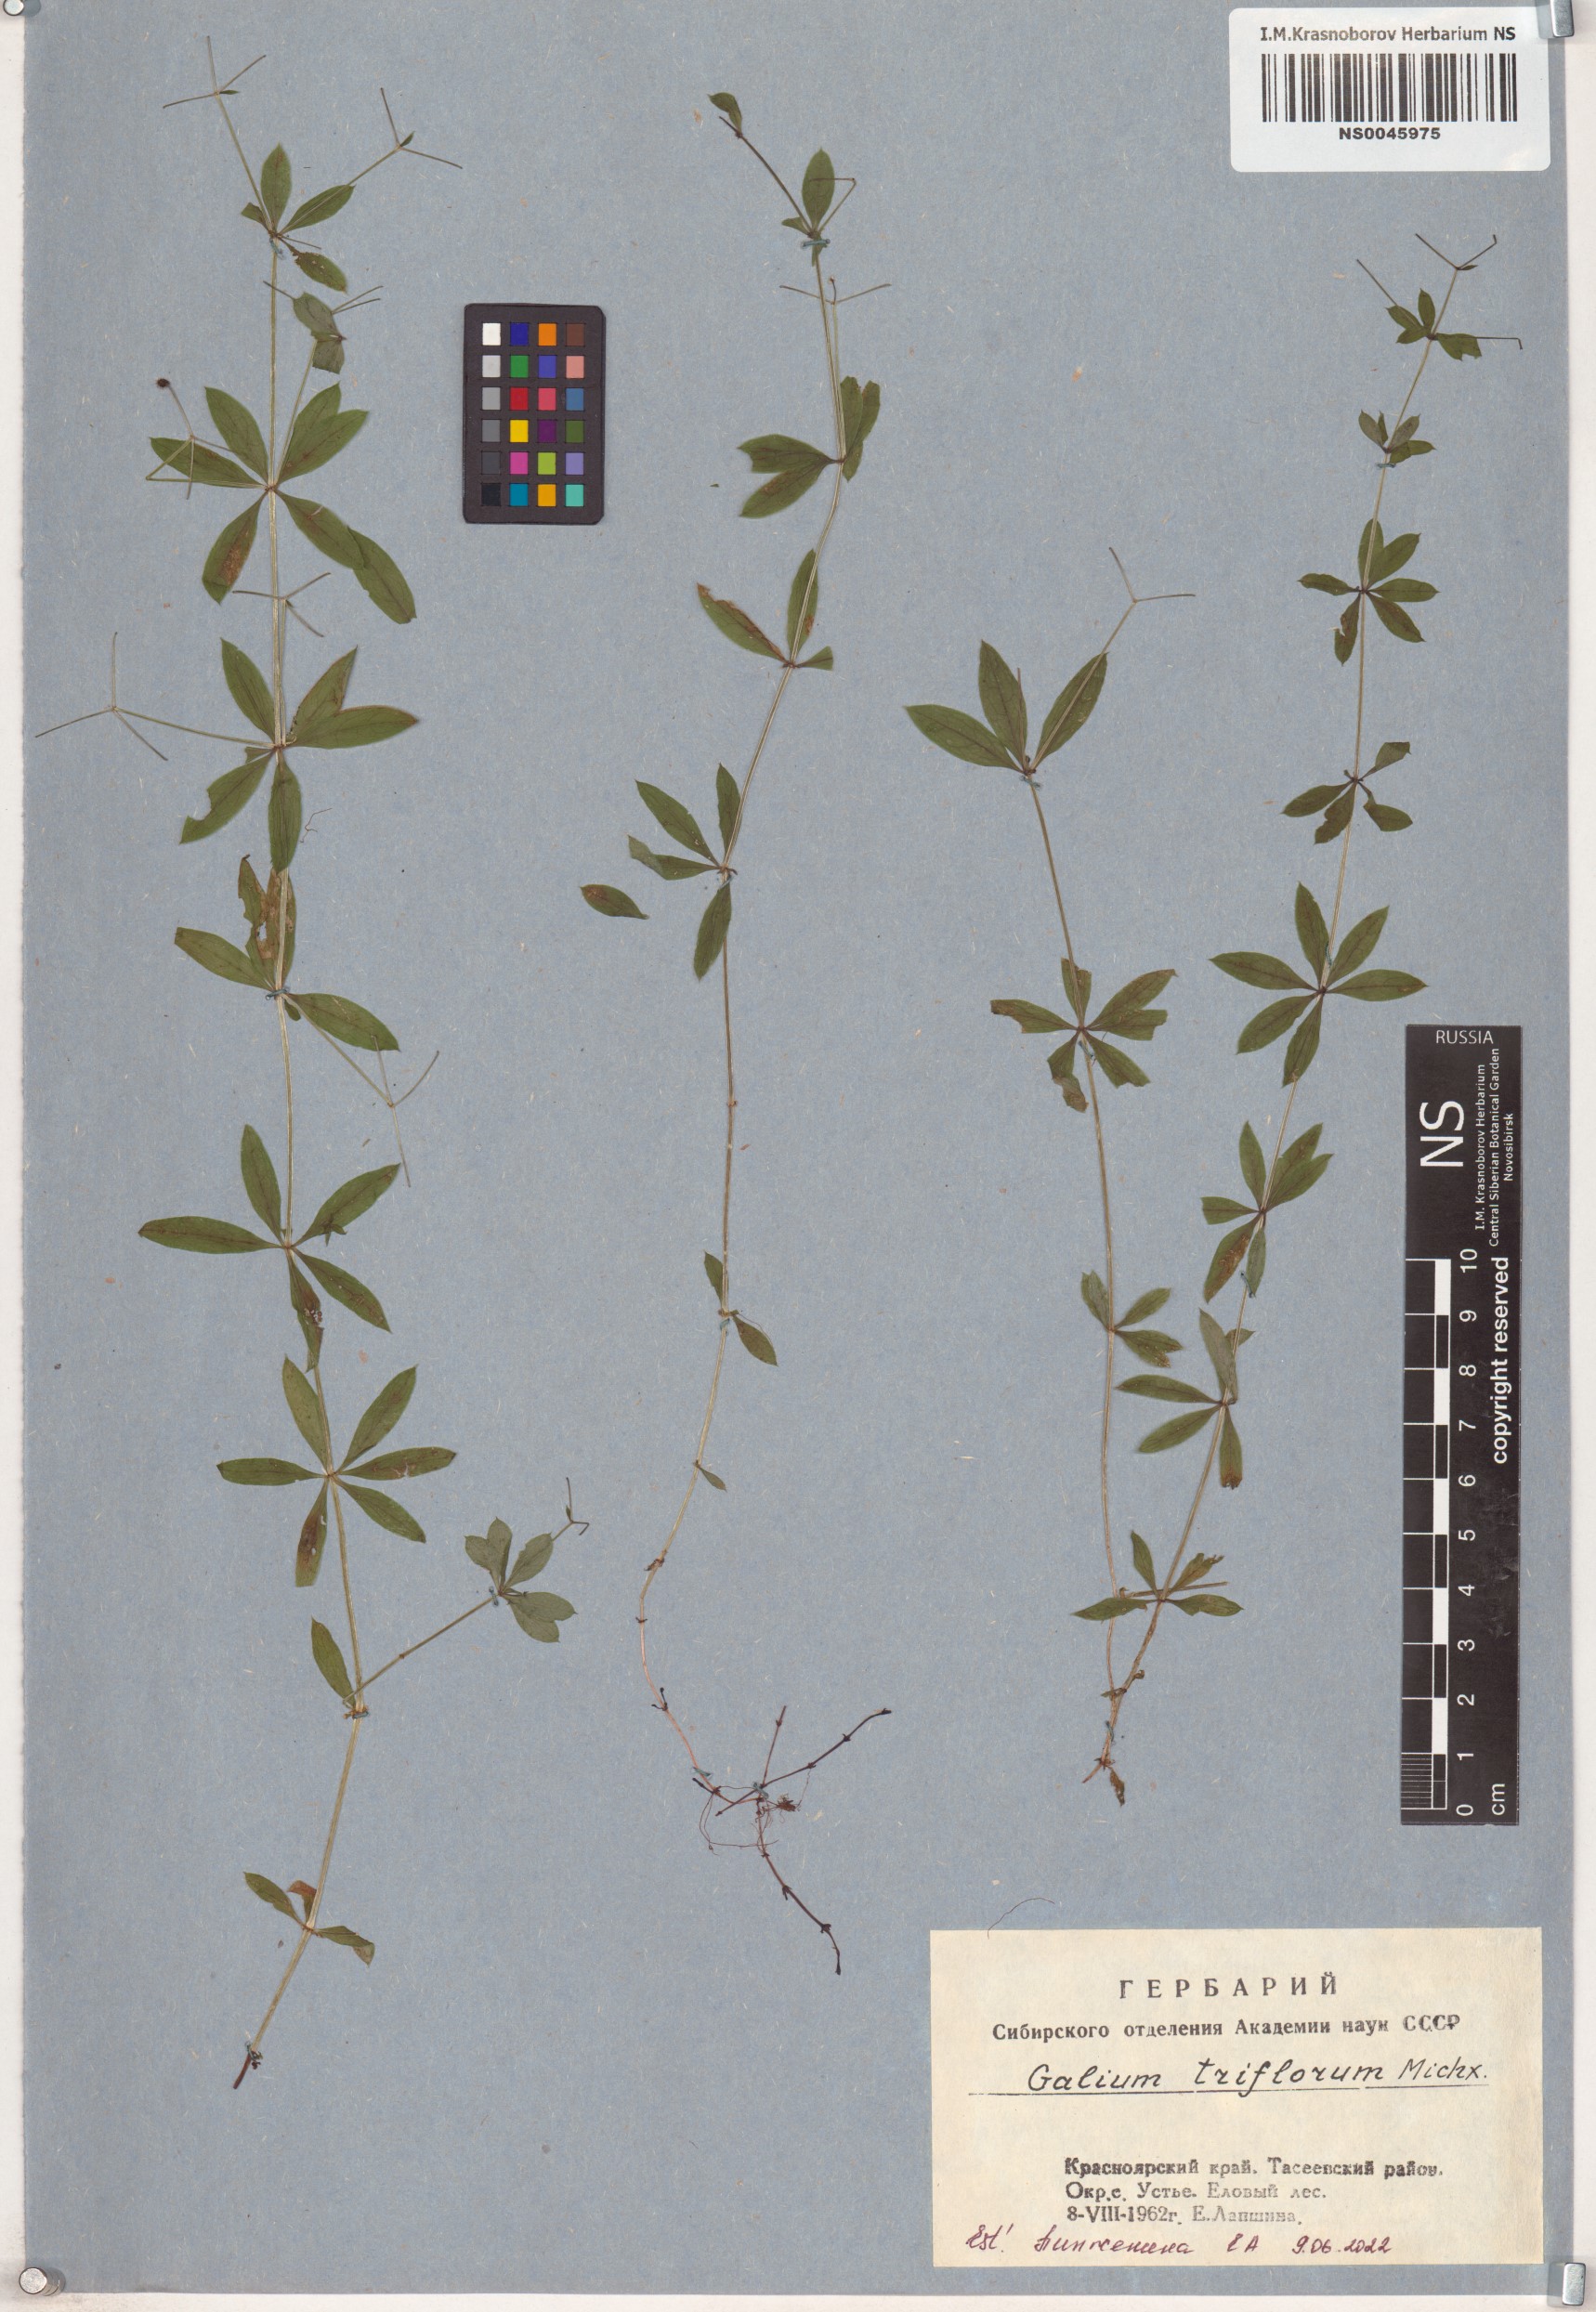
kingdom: Plantae
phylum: Tracheophyta
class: Magnoliopsida
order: Gentianales
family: Rubiaceae
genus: Galium
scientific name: Galium triflorum
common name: Fragrant bedstraw
